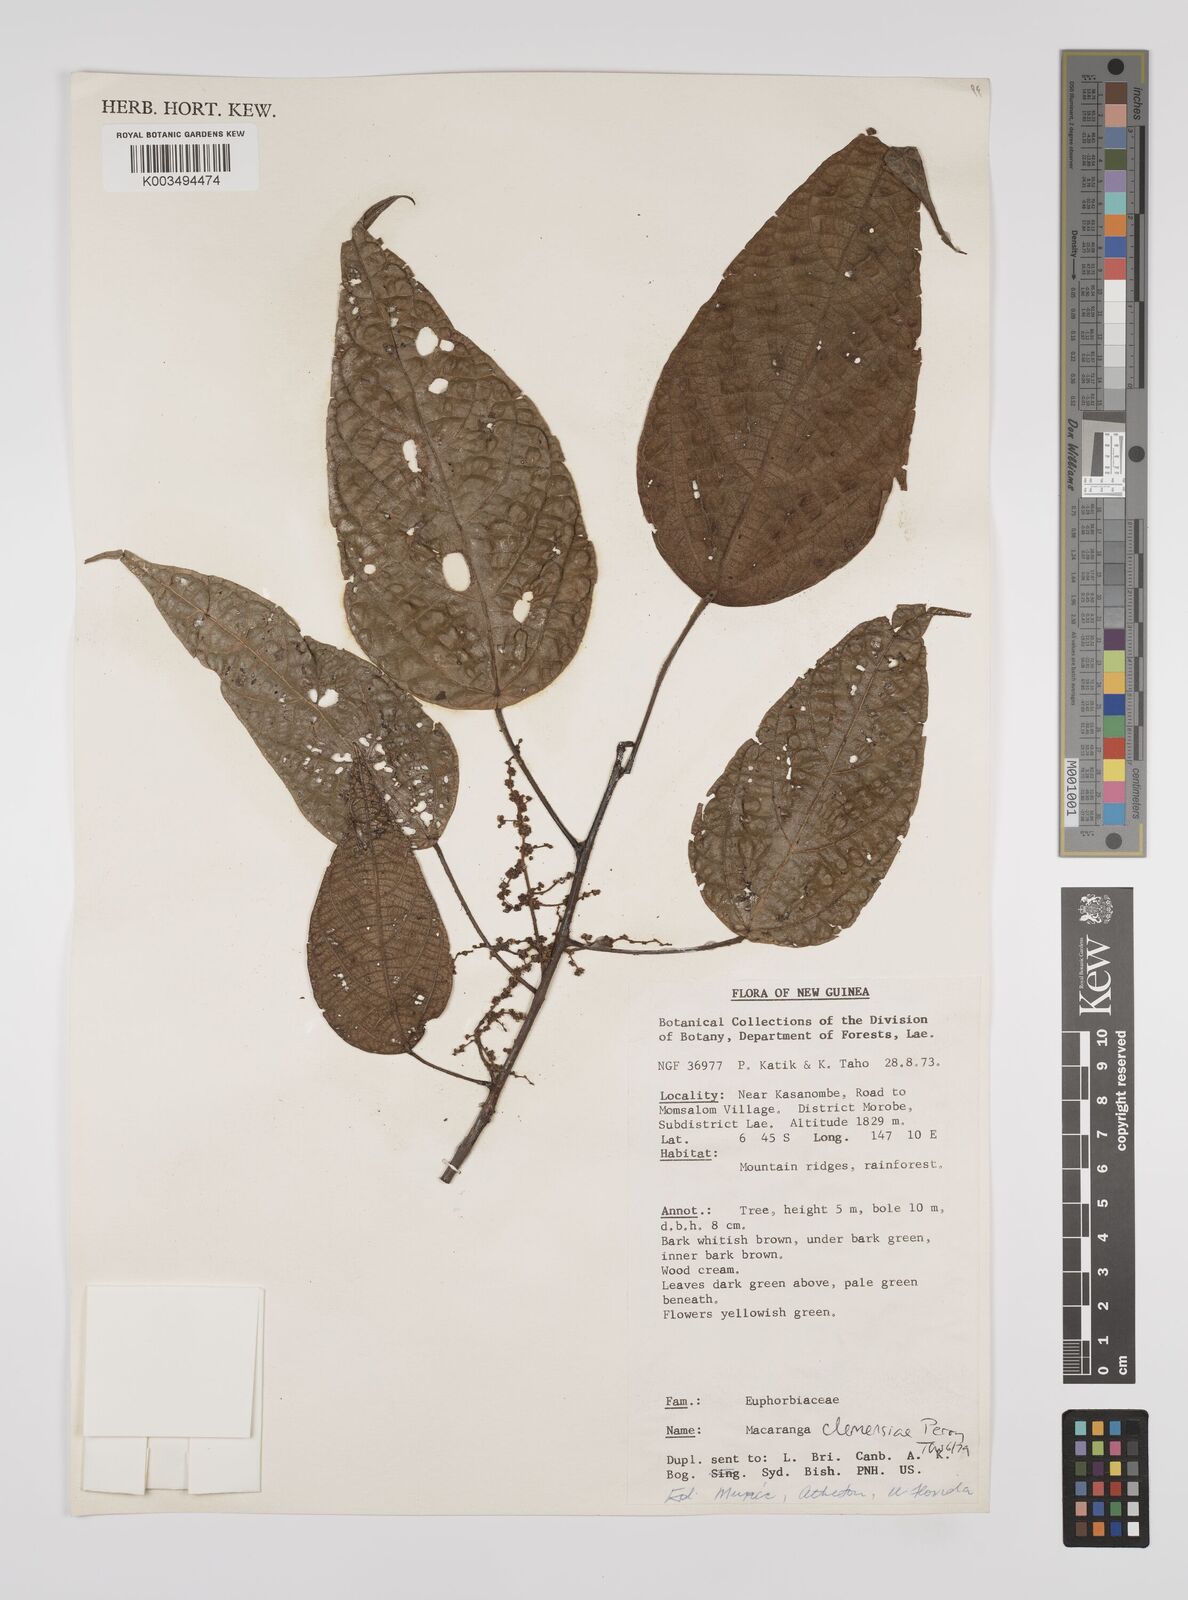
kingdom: Plantae
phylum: Tracheophyta
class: Magnoliopsida
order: Malpighiales
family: Euphorbiaceae
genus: Macaranga
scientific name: Macaranga clemensiae
